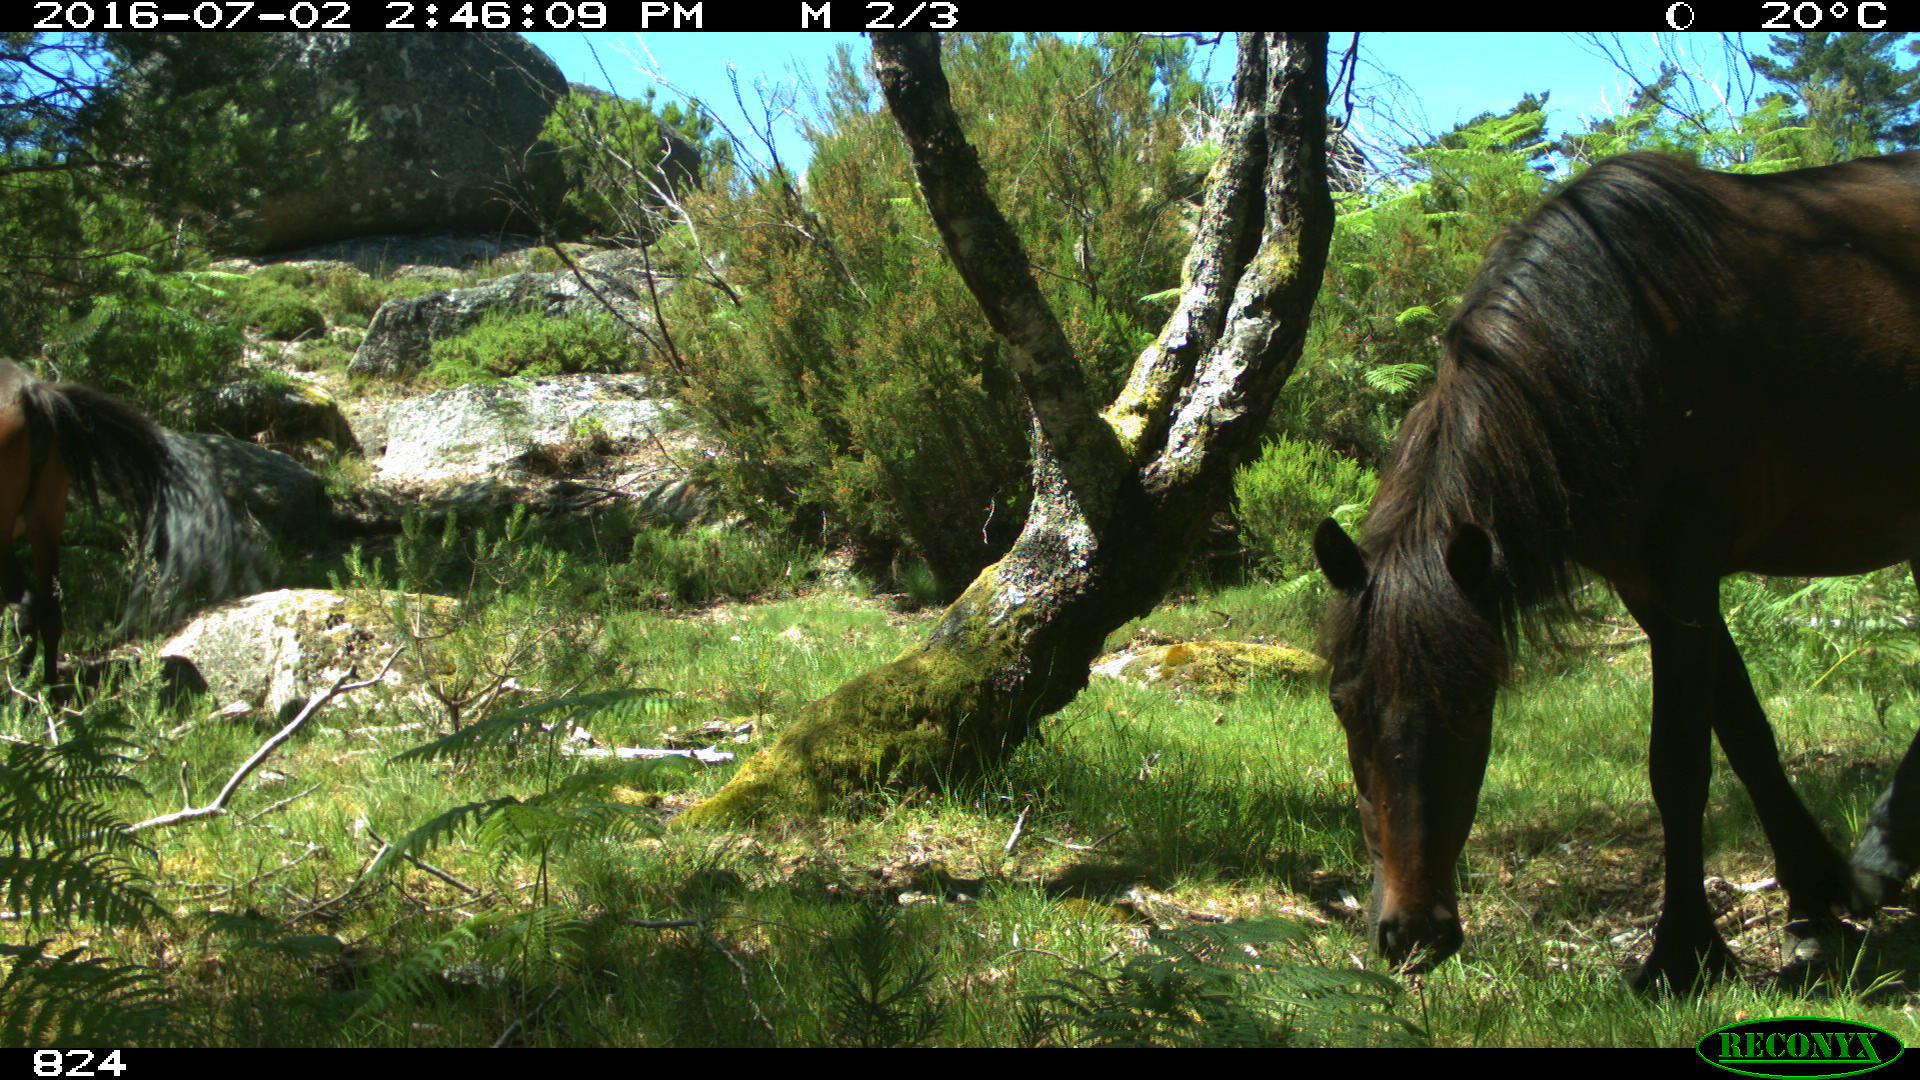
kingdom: Animalia
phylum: Chordata
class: Mammalia
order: Perissodactyla
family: Equidae
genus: Equus
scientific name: Equus caballus
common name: Horse
